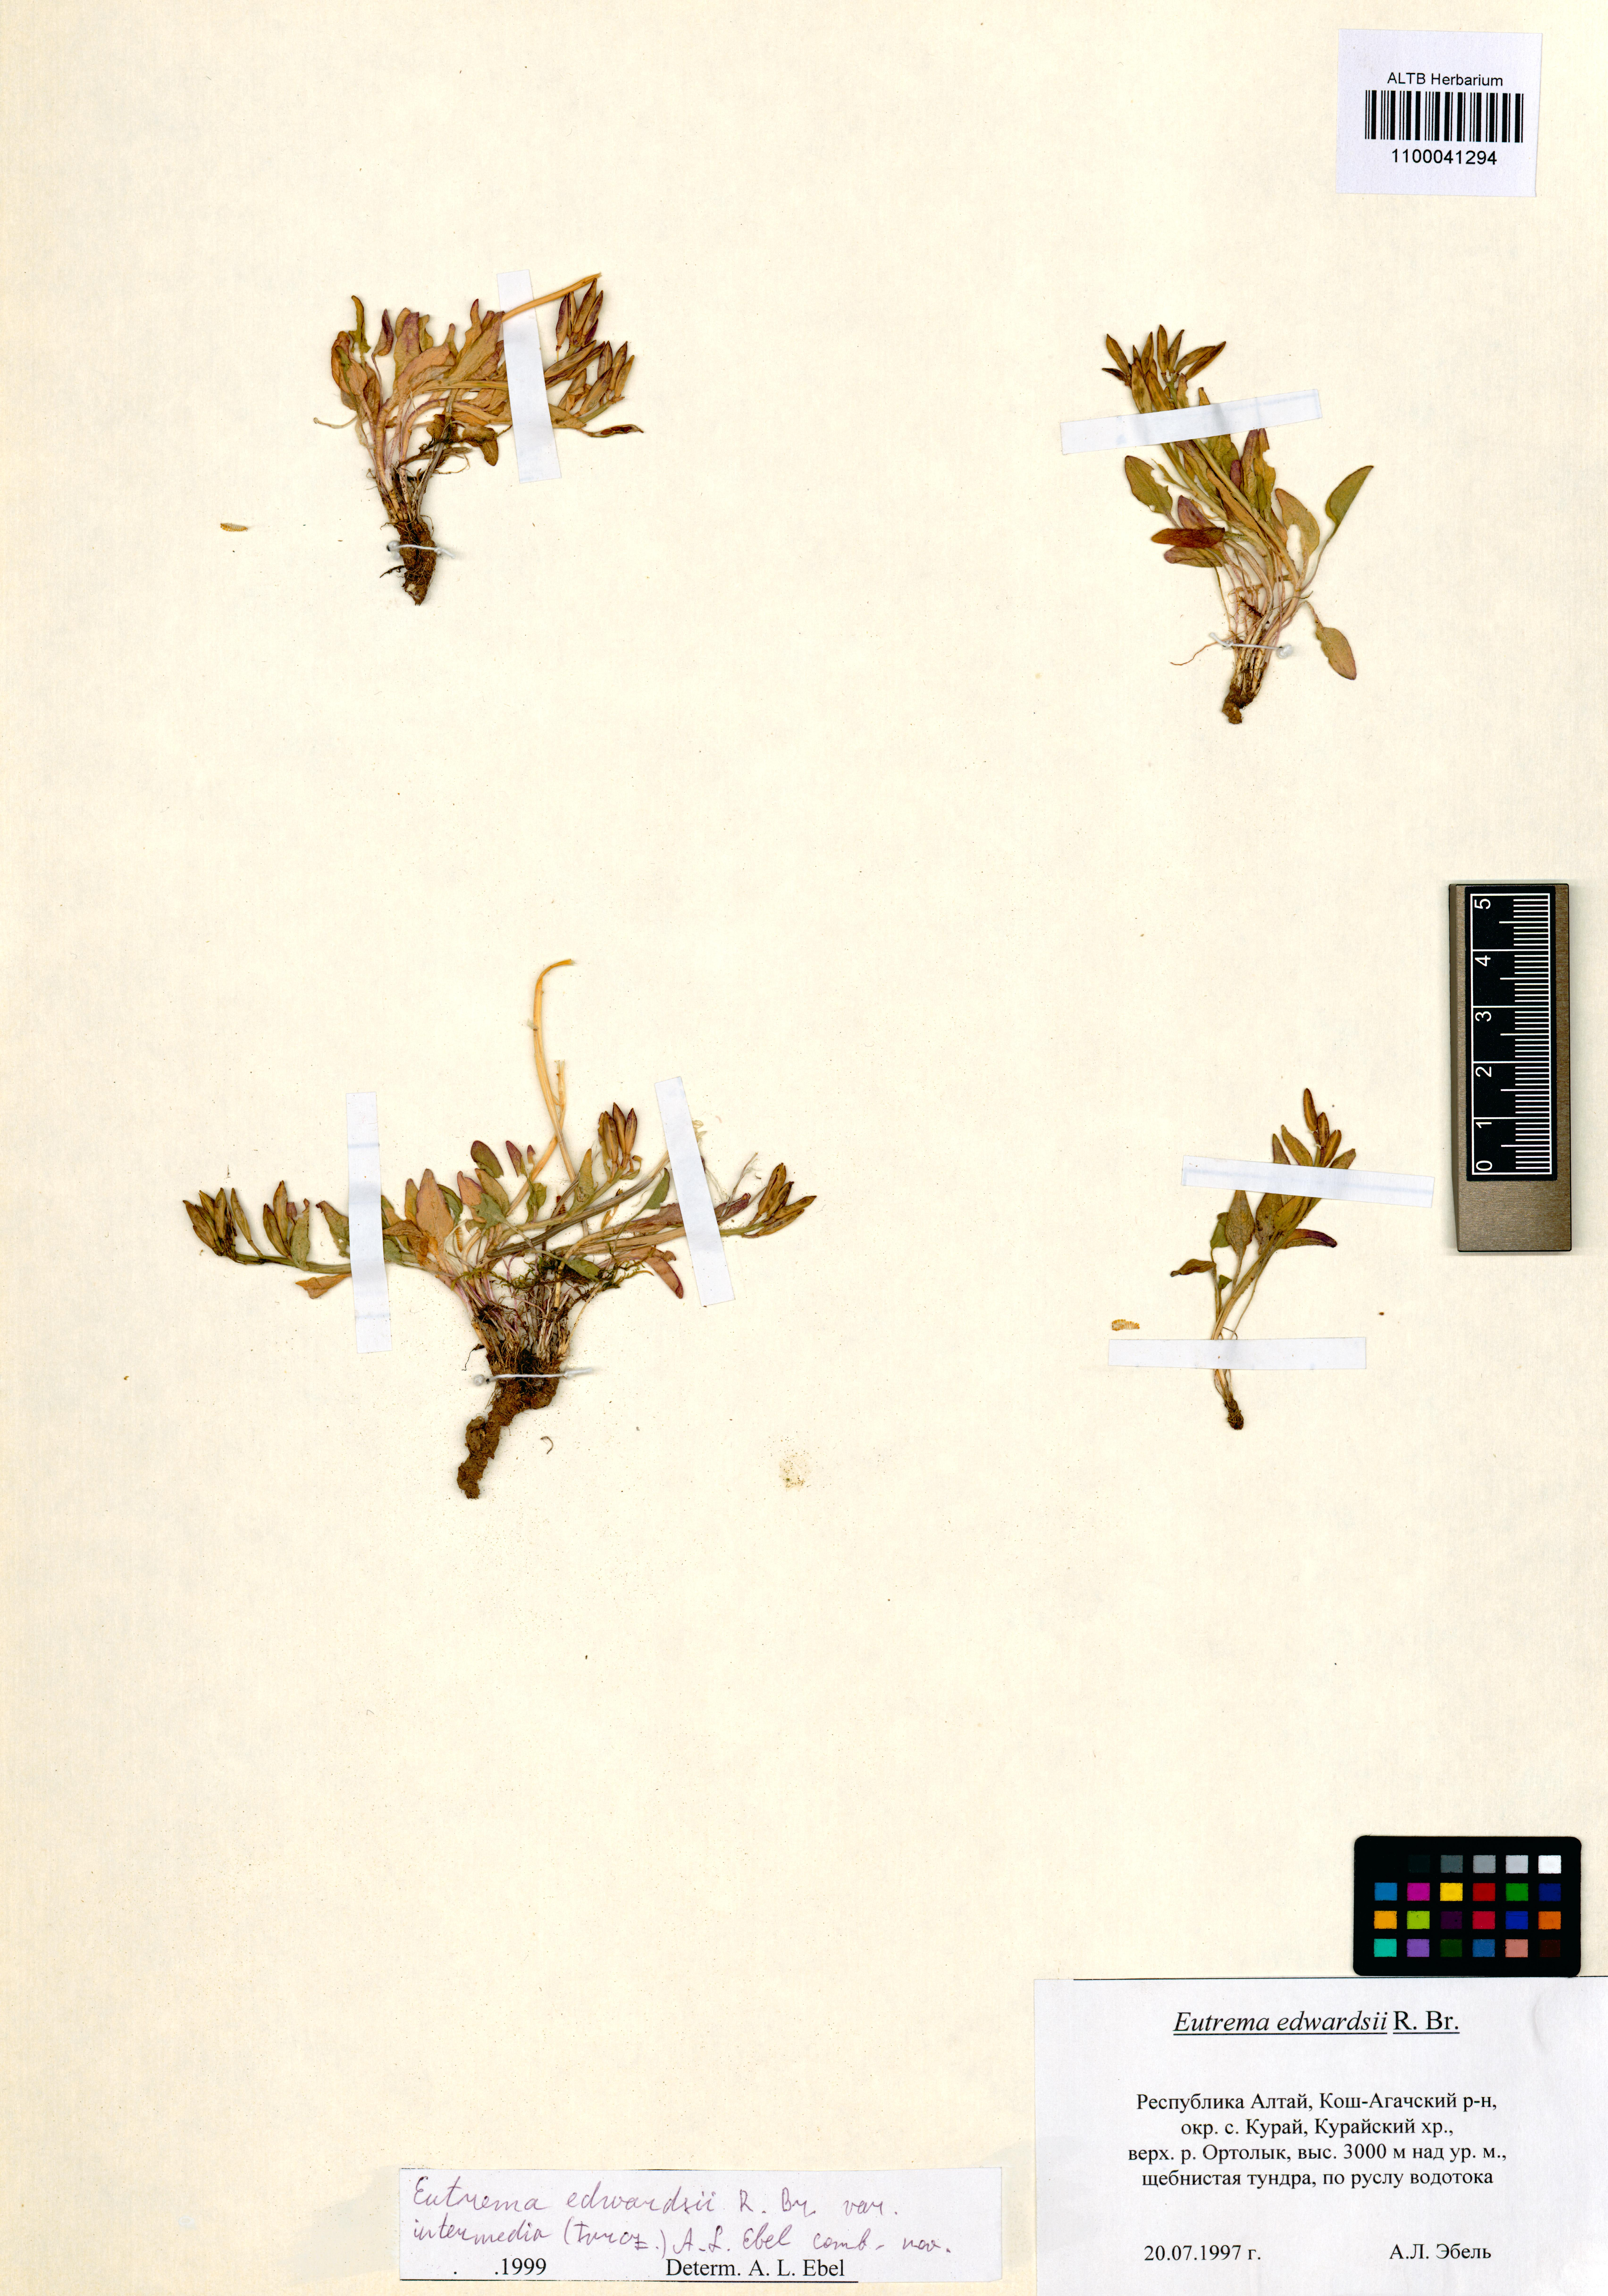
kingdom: Plantae
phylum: Tracheophyta
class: Magnoliopsida
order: Brassicales
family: Brassicaceae
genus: Eutrema
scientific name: Eutrema edwardsii
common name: Penland alpine fen mustard
